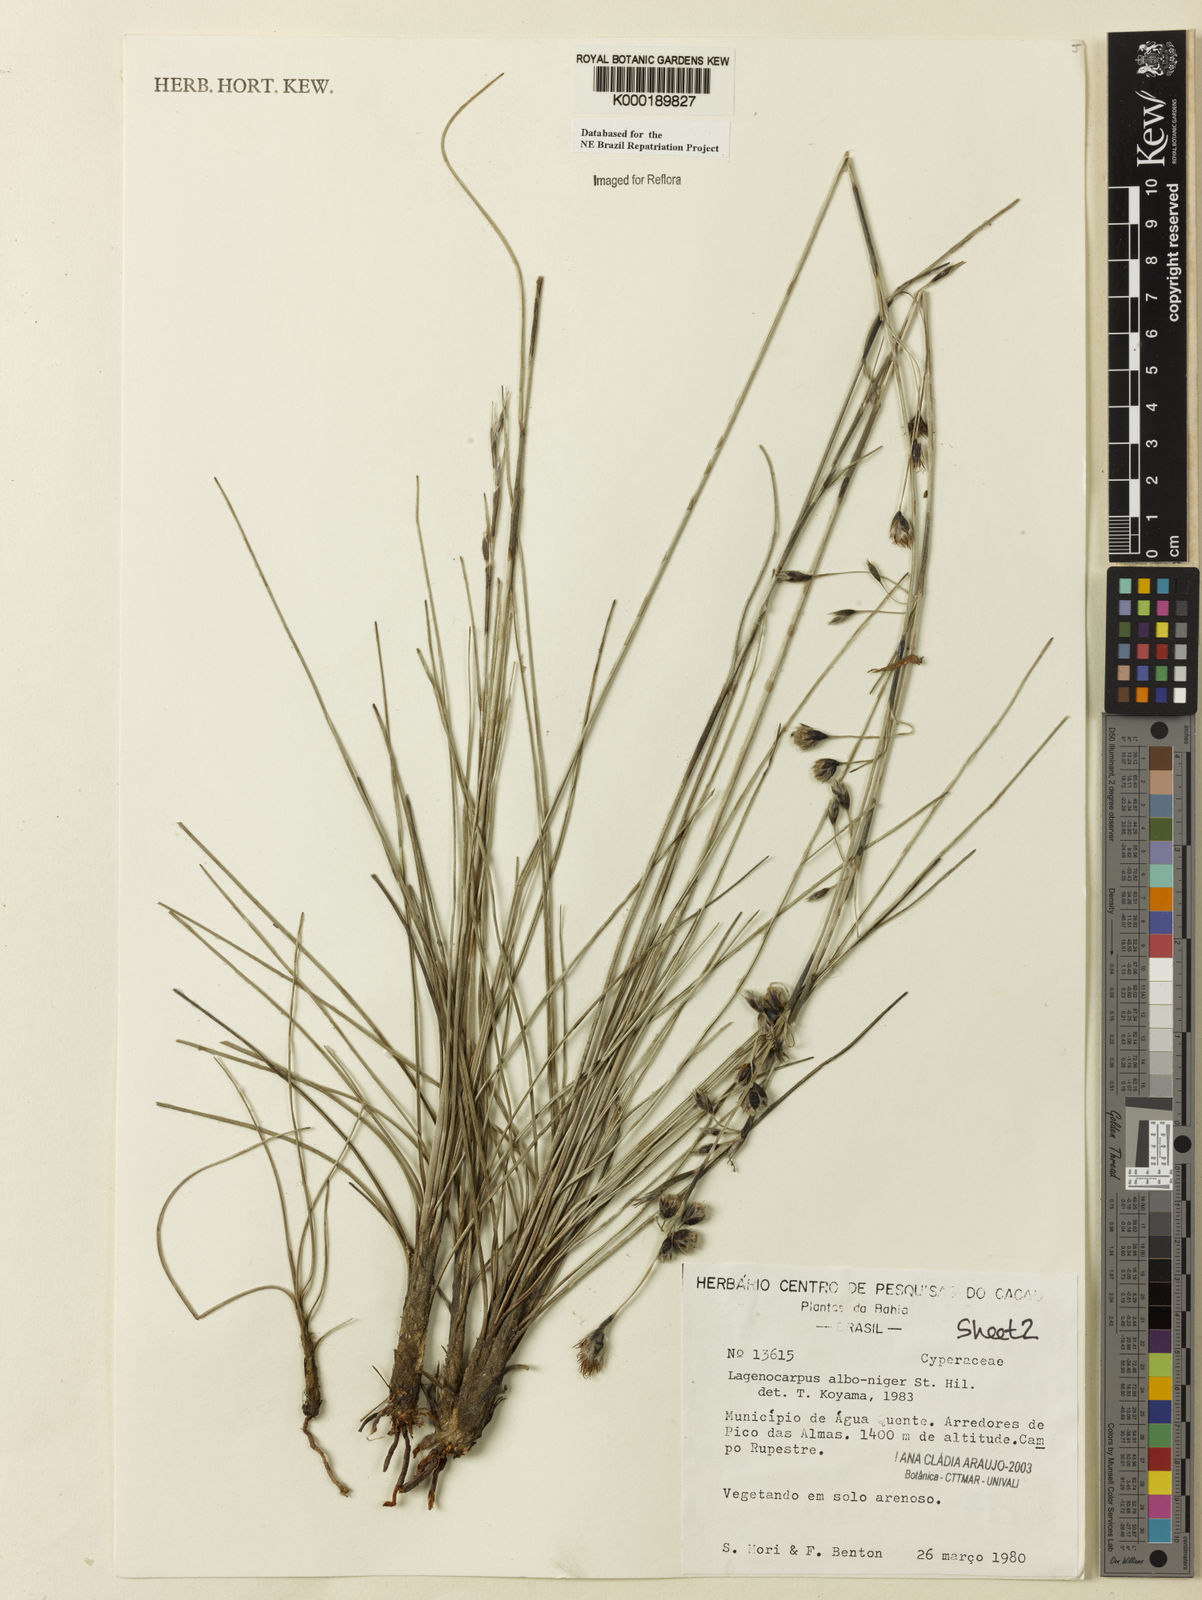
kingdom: Plantae
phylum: Tracheophyta
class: Liliopsida
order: Poales
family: Cyperaceae
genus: Lagenocarpus
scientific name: Lagenocarpus alboniger
